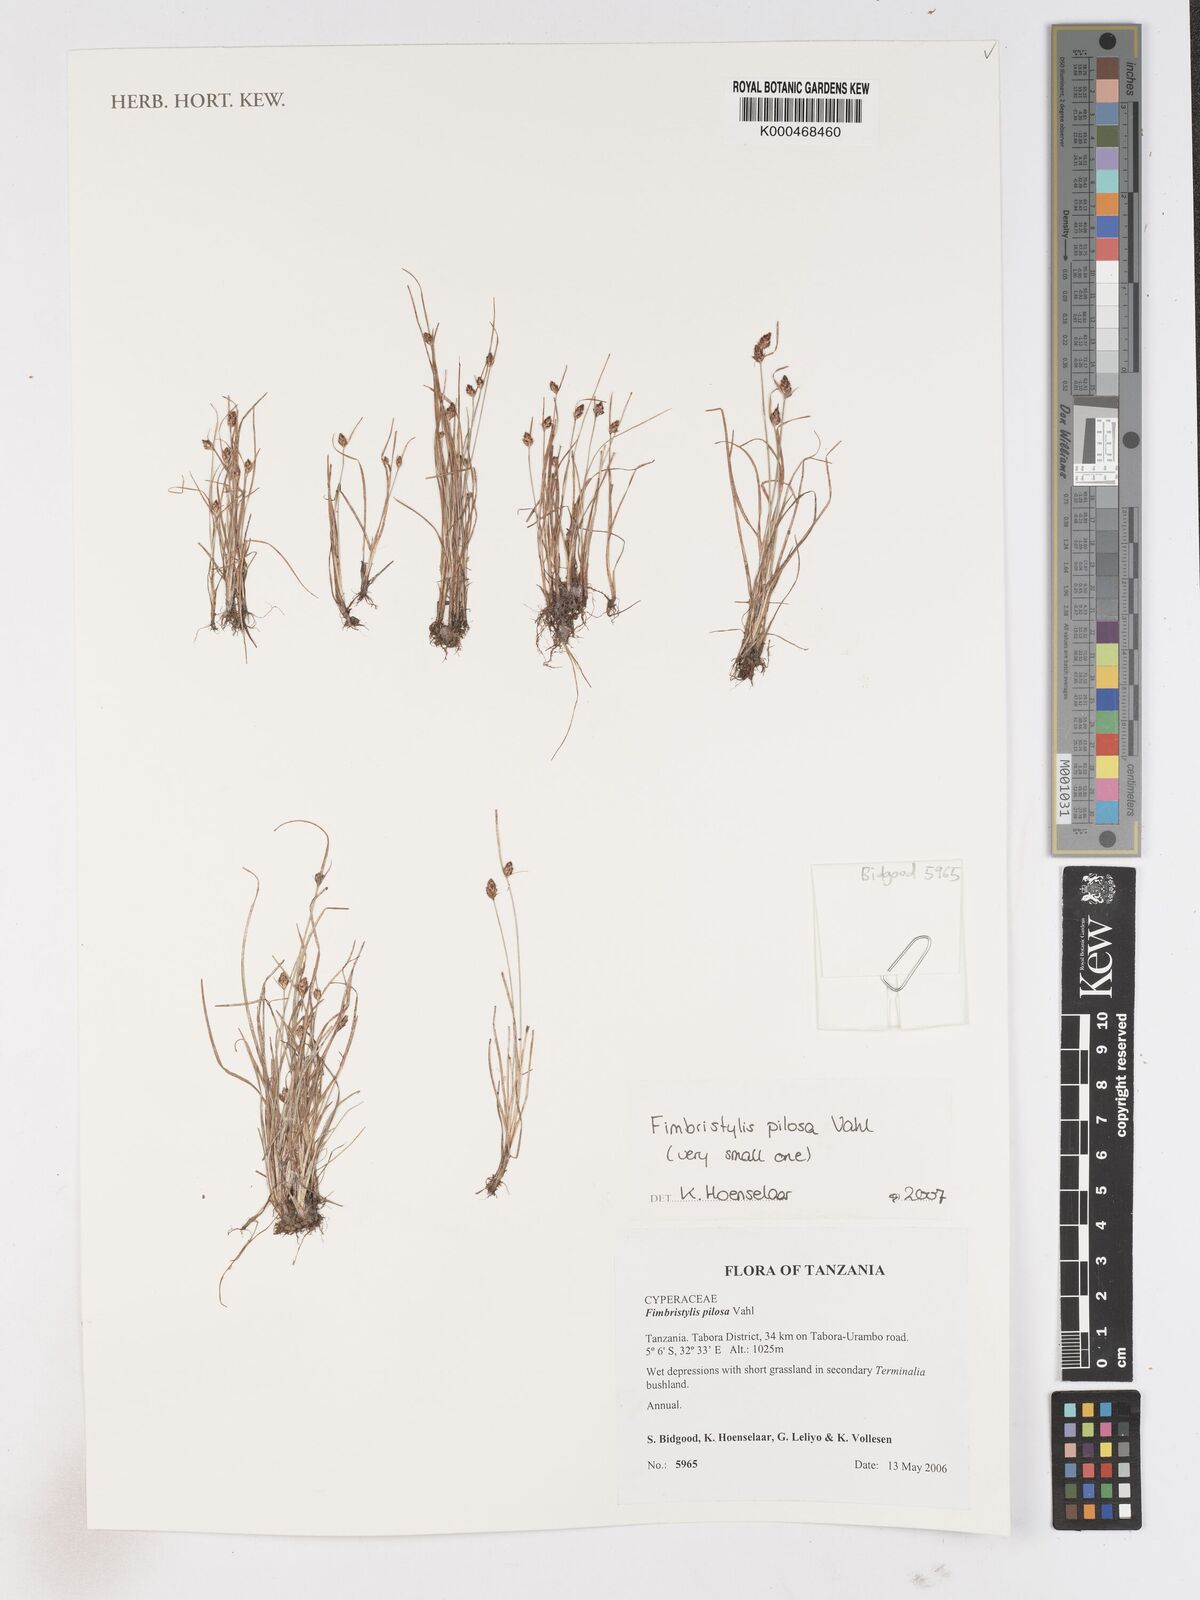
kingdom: Plantae
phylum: Tracheophyta
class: Liliopsida
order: Poales
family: Cyperaceae
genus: Fimbristylis
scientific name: Fimbristylis pilosa
